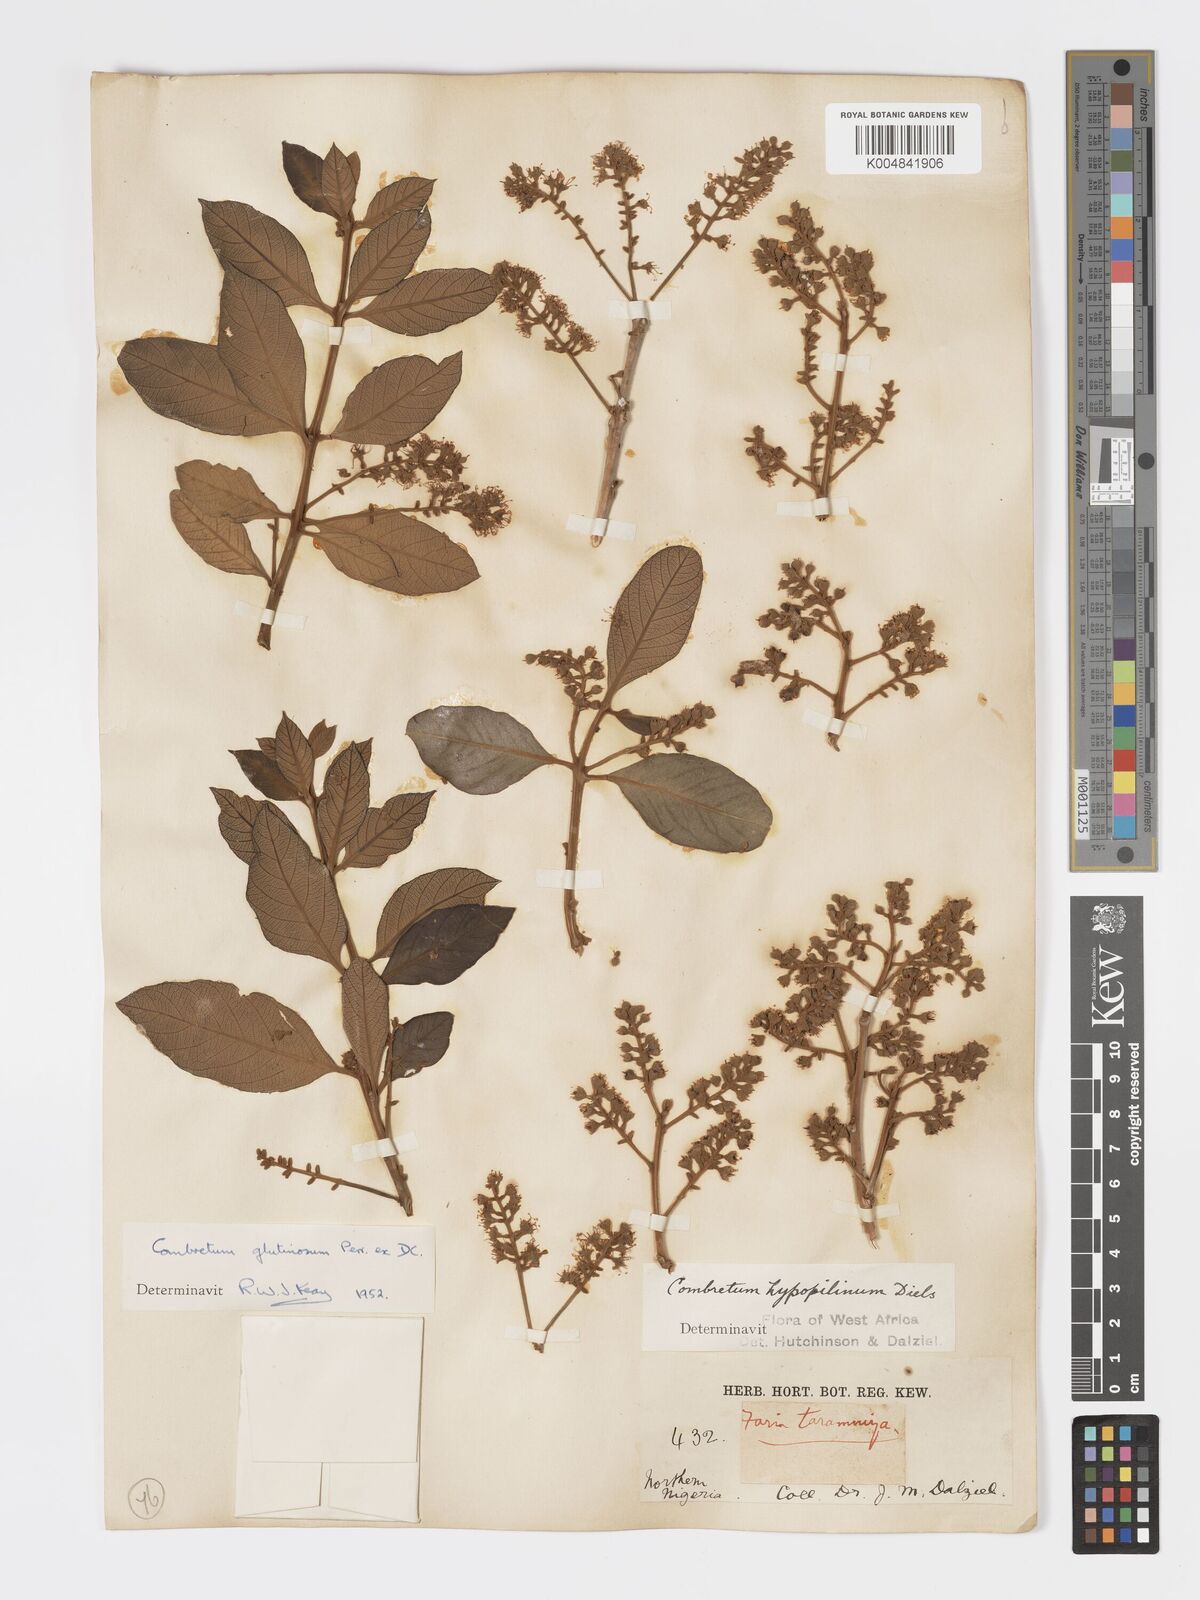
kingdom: Plantae
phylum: Tracheophyta
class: Magnoliopsida
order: Myrtales
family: Combretaceae
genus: Combretum
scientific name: Combretum
